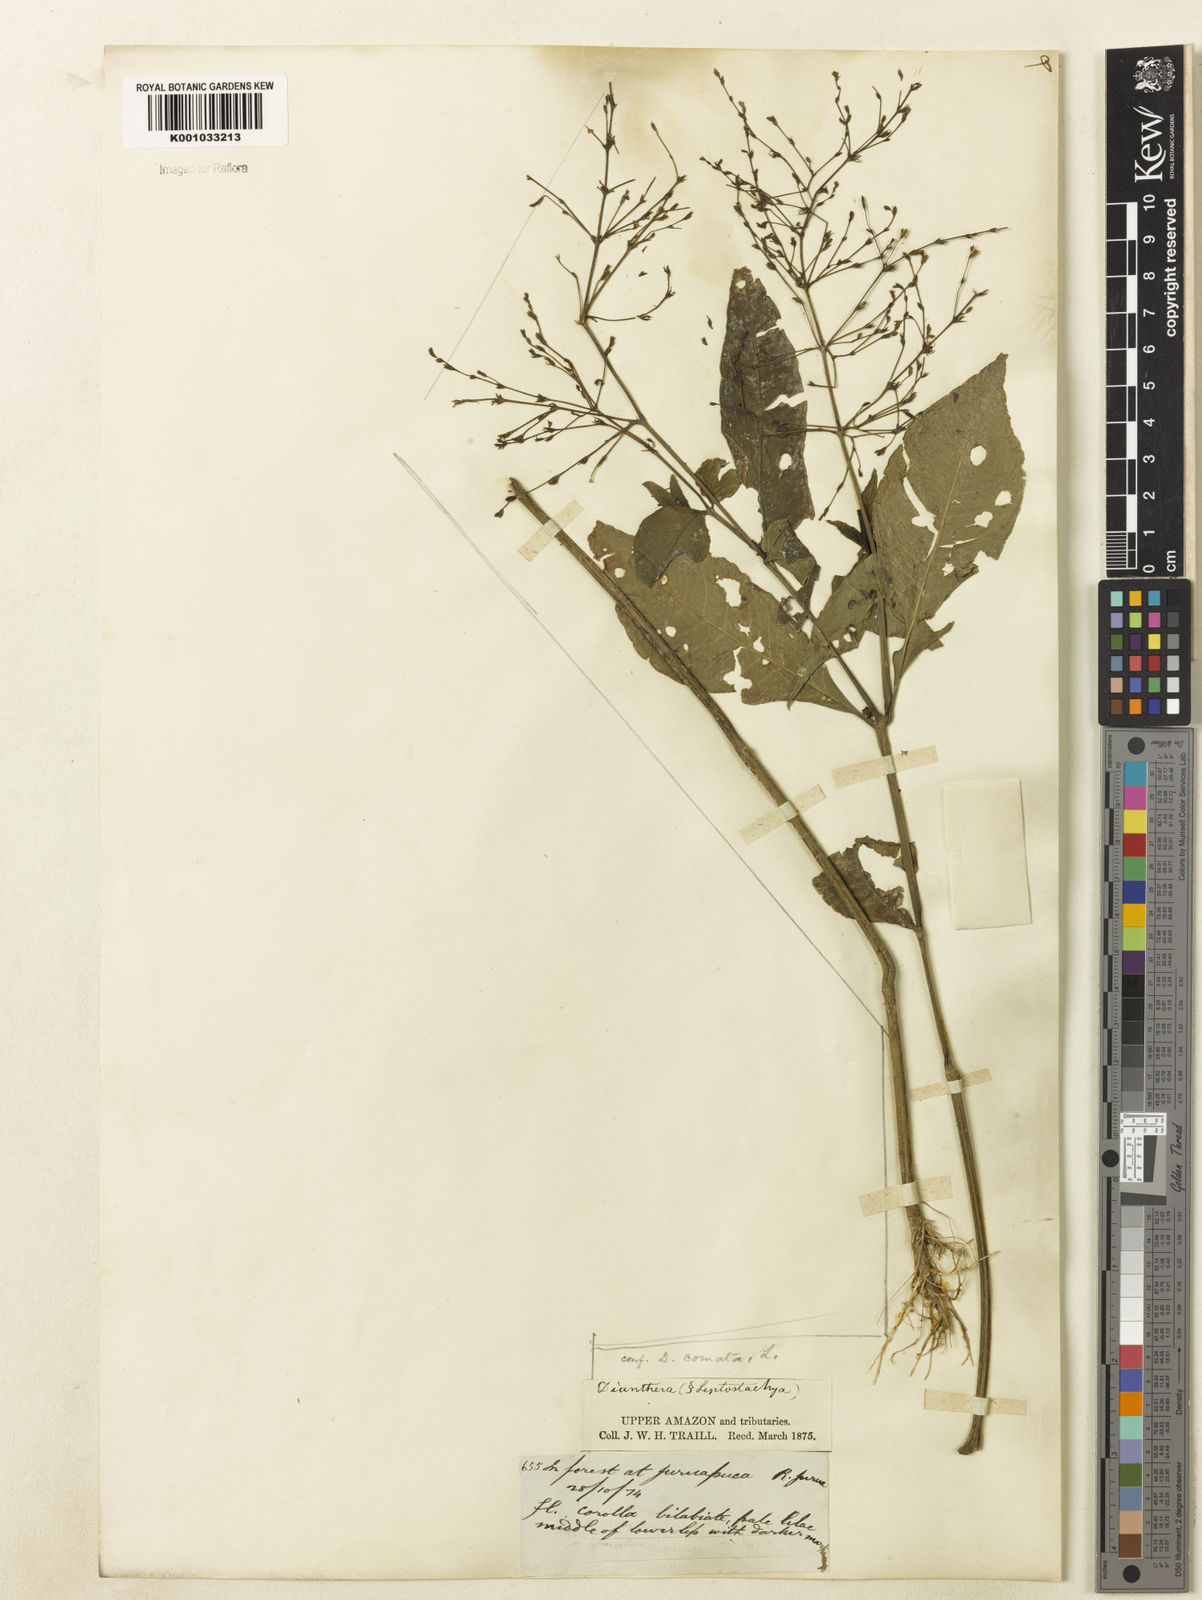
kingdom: Plantae
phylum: Tracheophyta
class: Magnoliopsida
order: Lamiales
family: Acanthaceae
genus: Dianthera
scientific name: Dianthera comata
